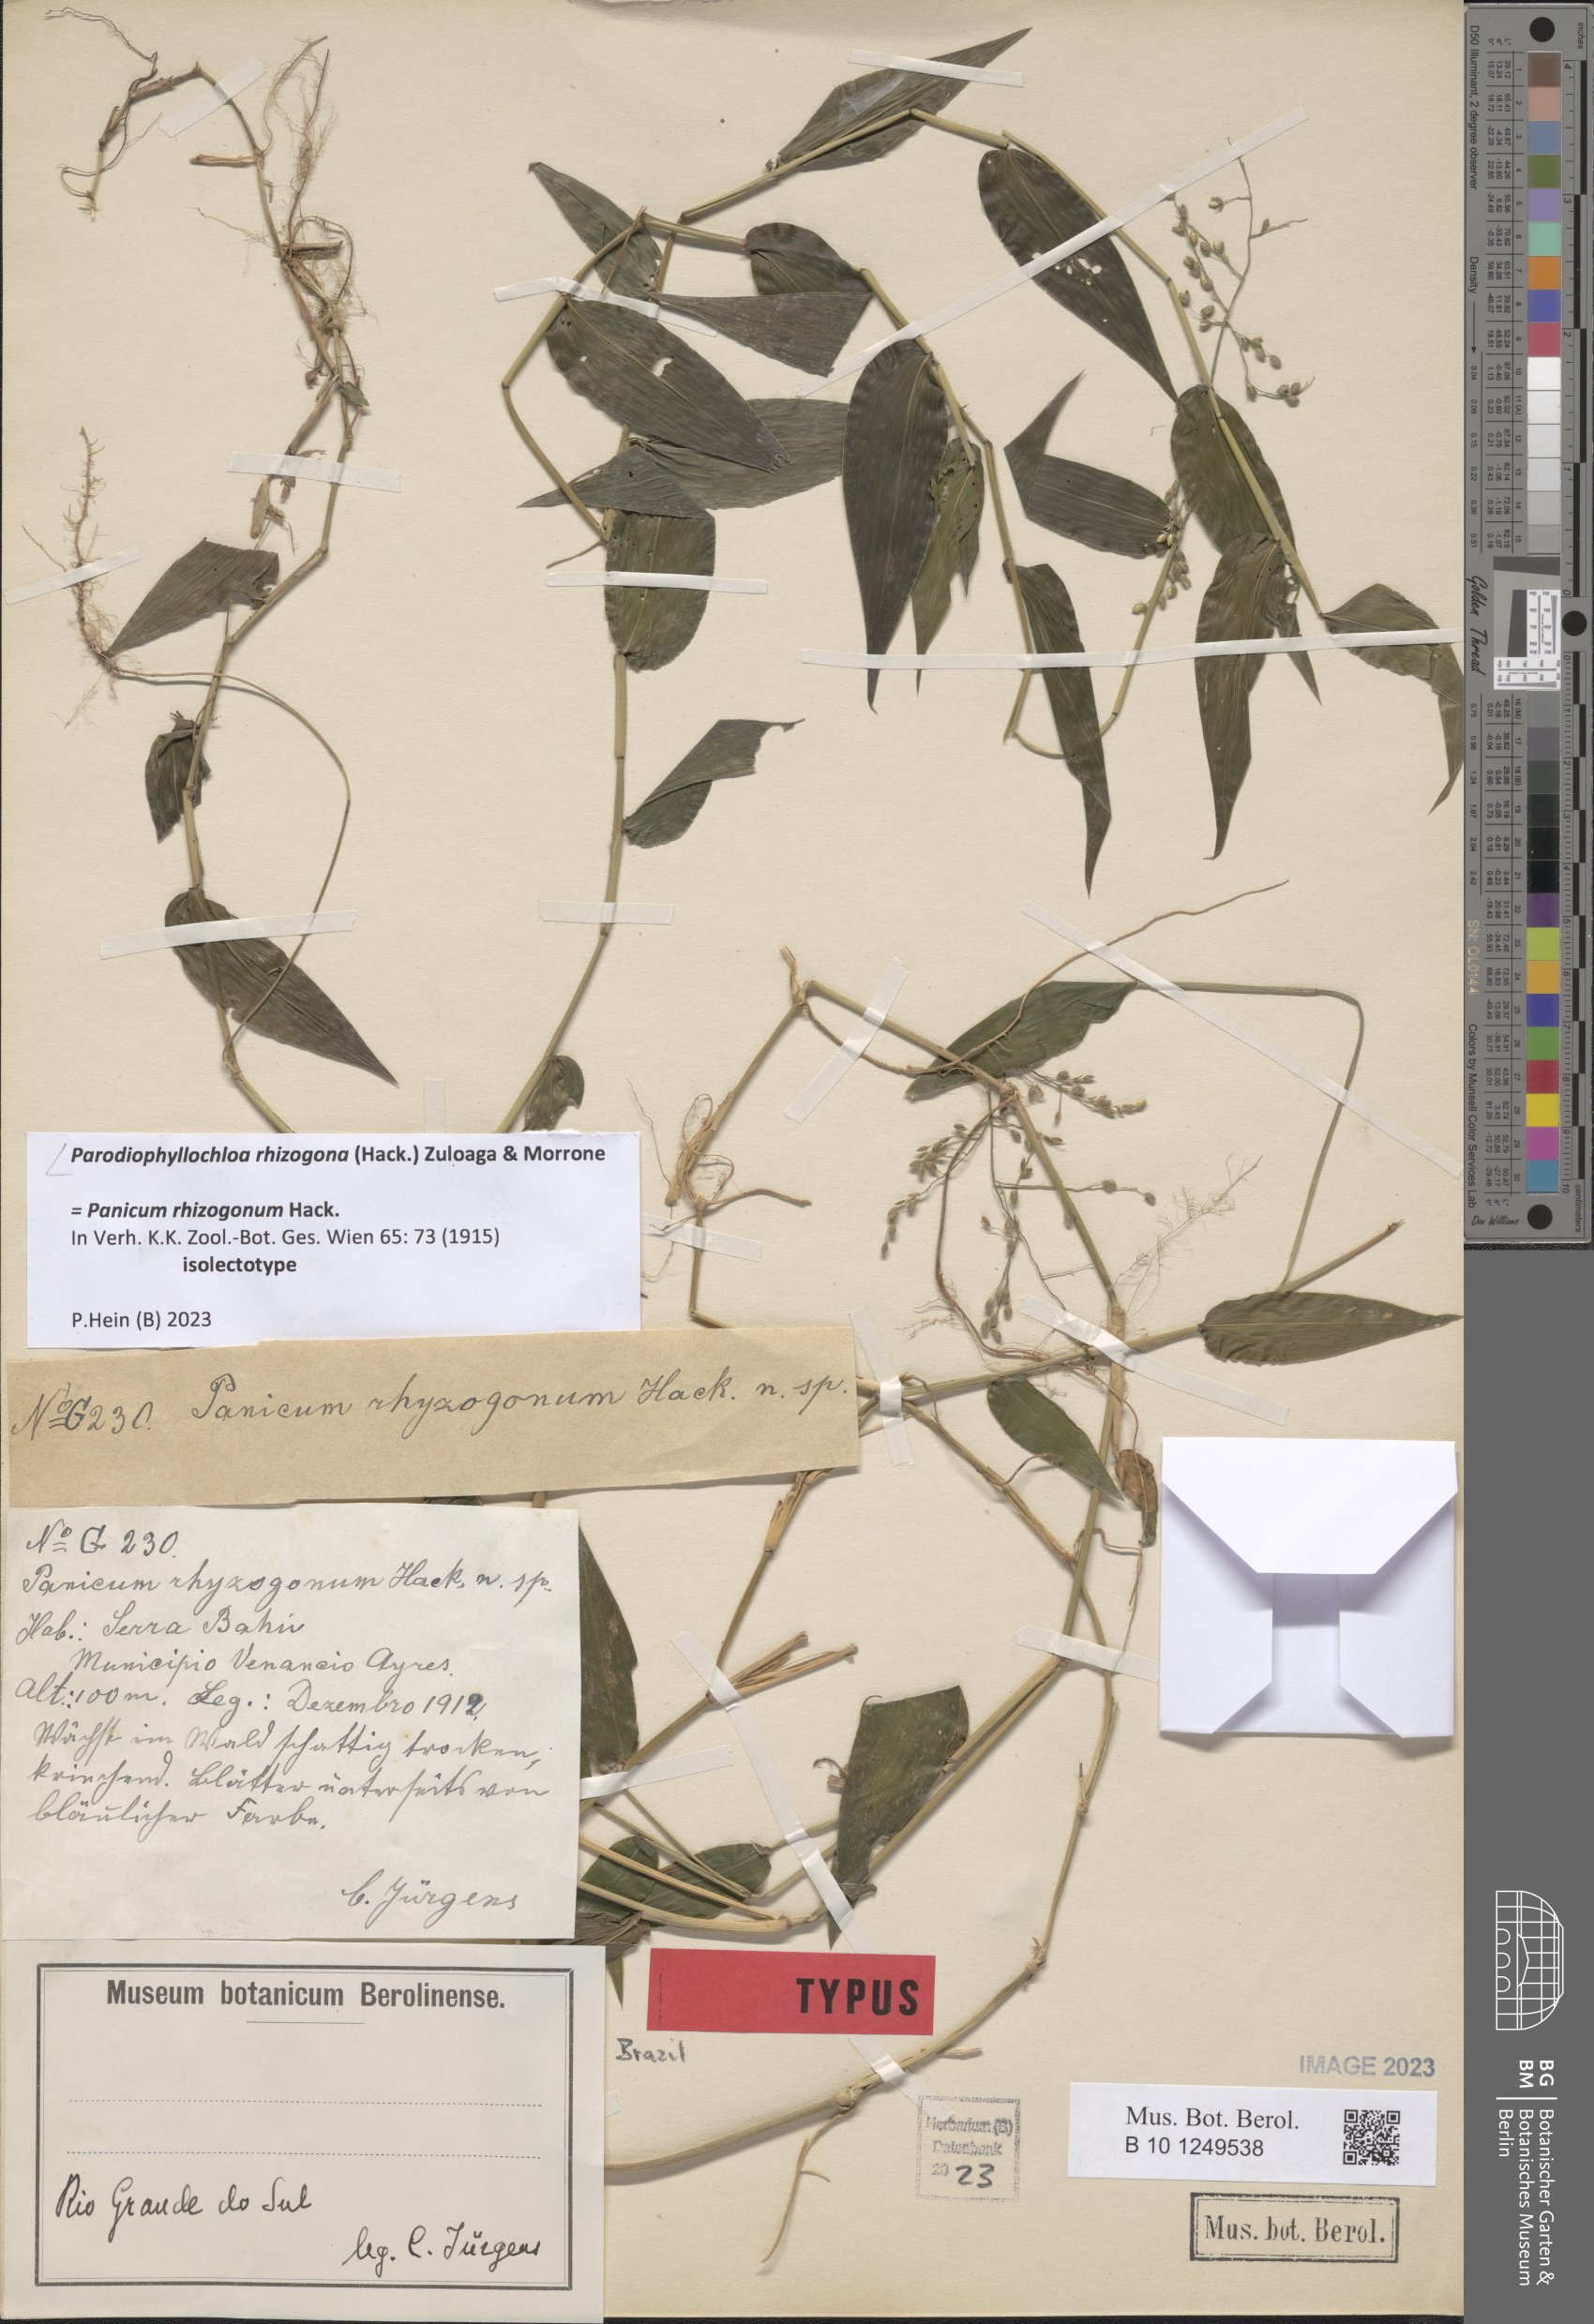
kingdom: Plantae
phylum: Tracheophyta
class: Liliopsida
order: Poales
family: Poaceae
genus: Parodiophyllochloa
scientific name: Parodiophyllochloa rhizogona
